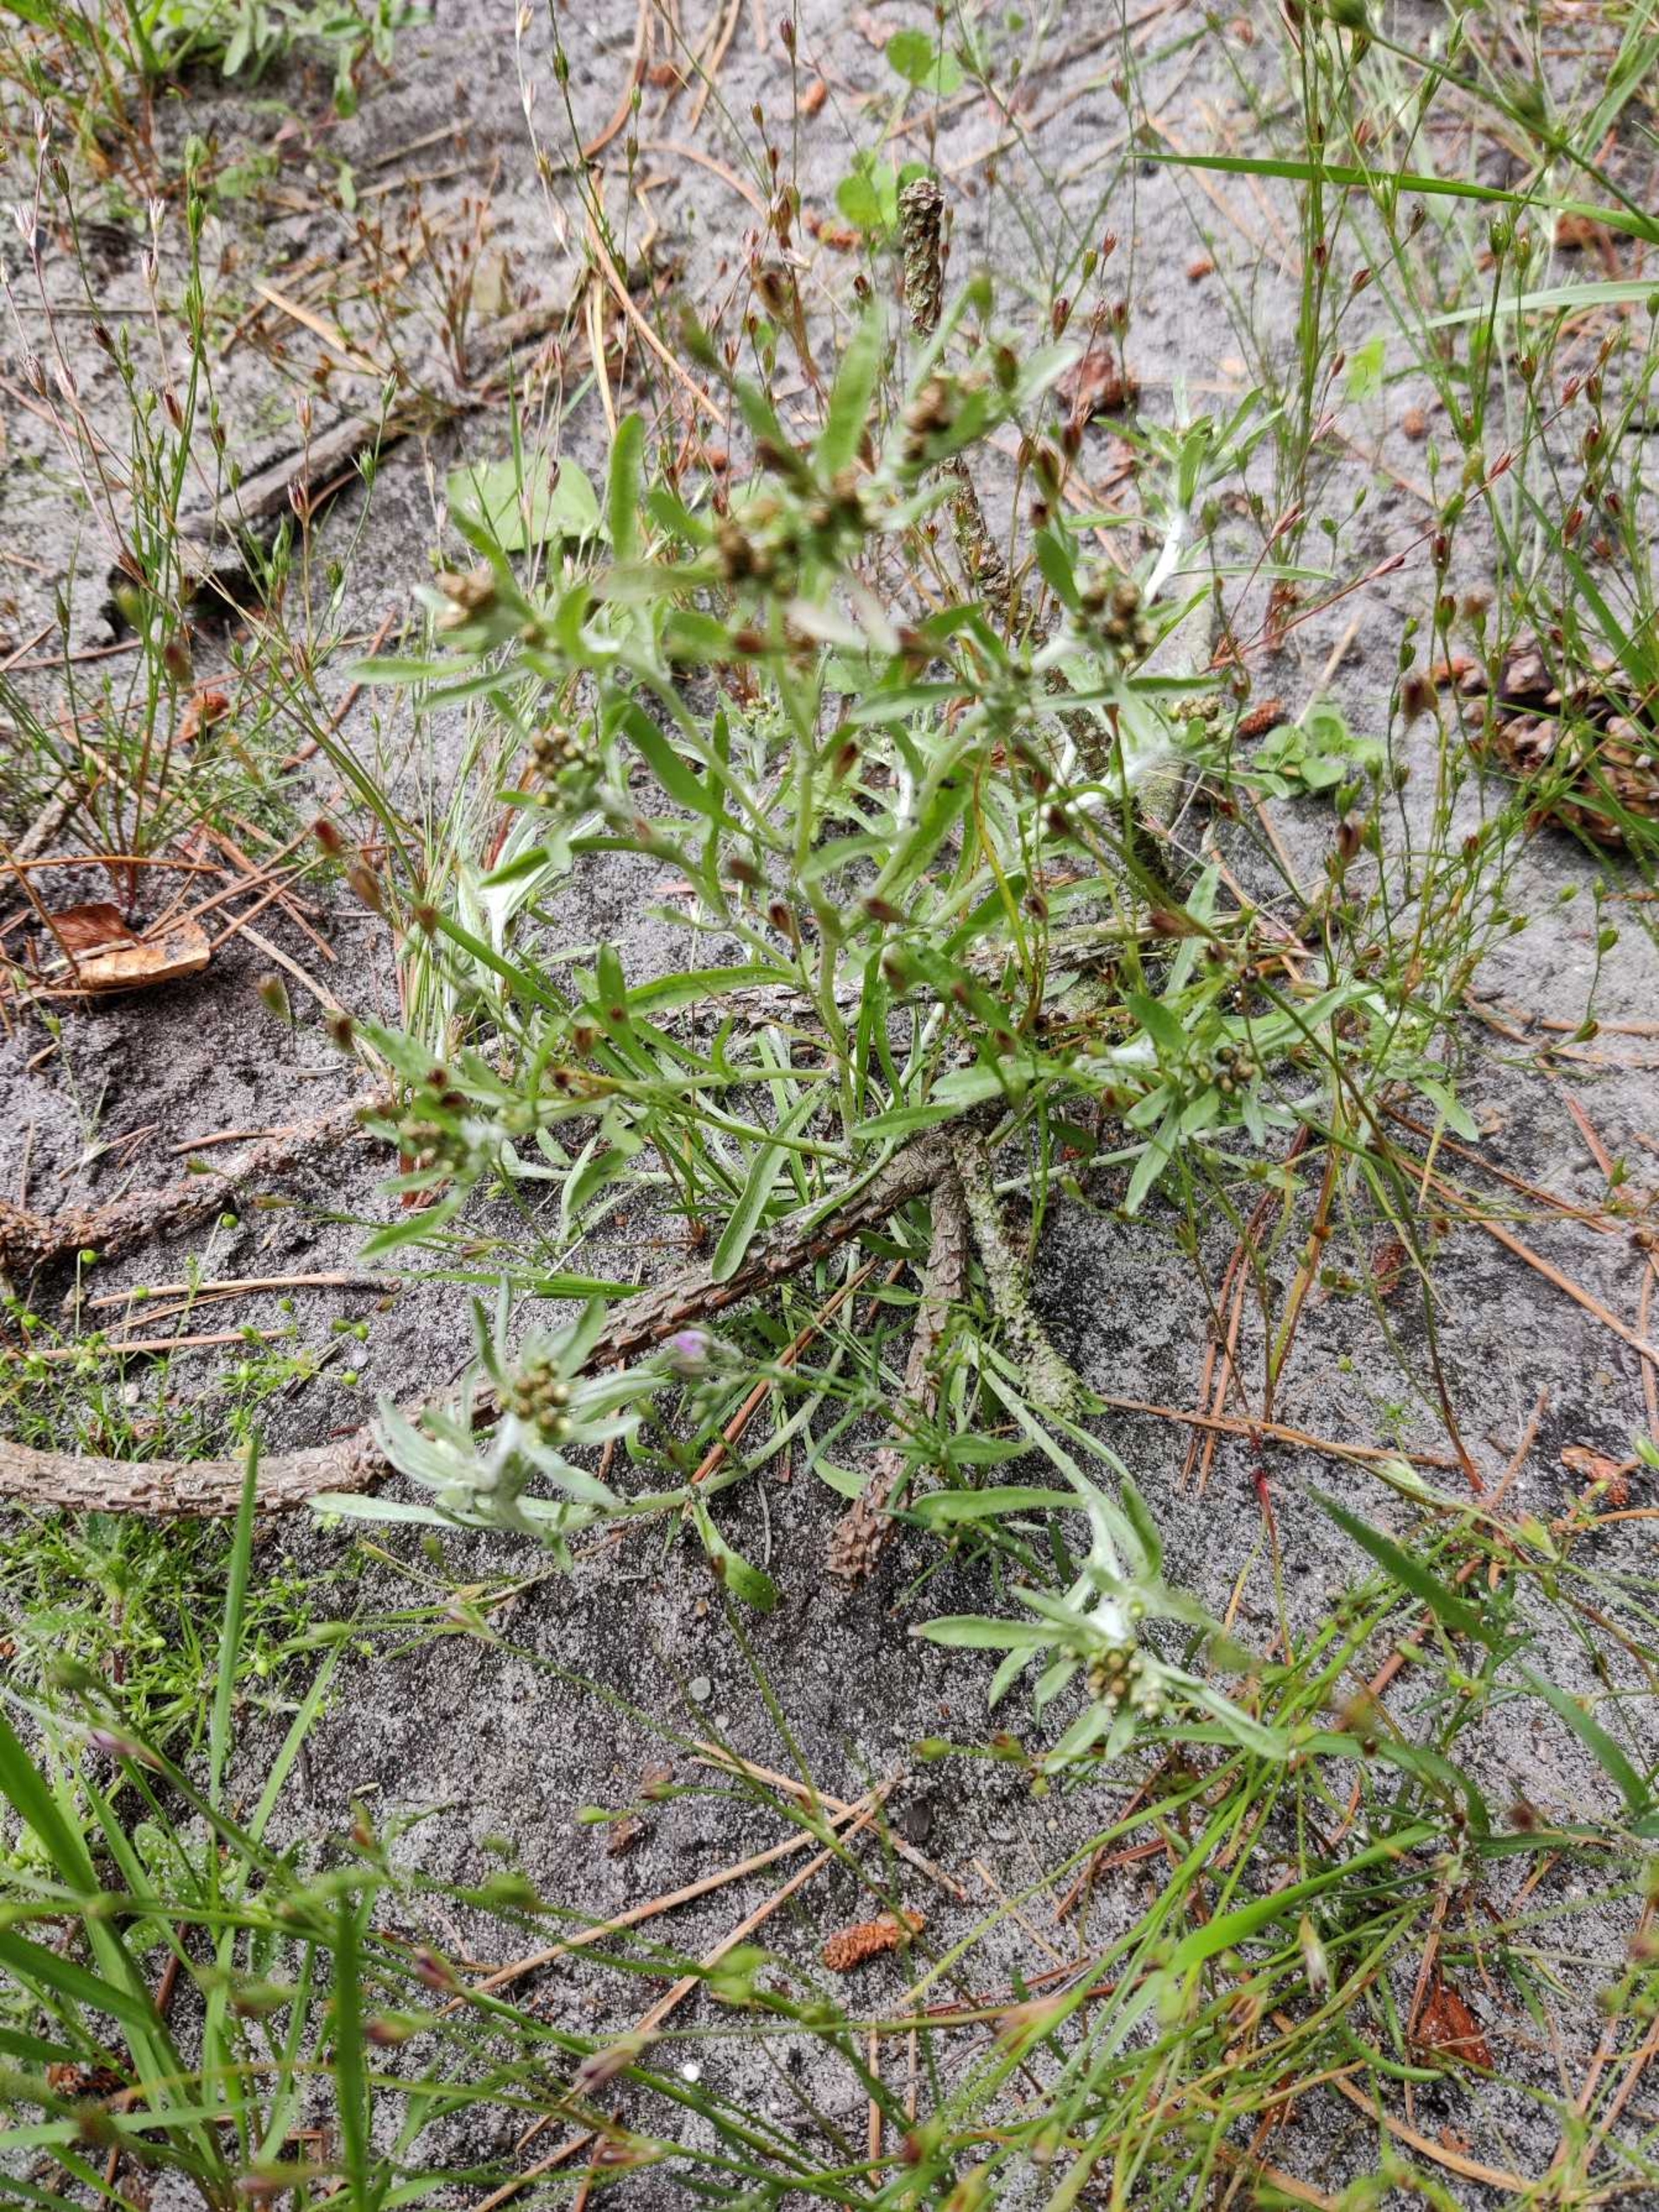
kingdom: Plantae
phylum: Tracheophyta
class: Magnoliopsida
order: Asterales
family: Asteraceae
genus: Gnaphalium
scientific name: Gnaphalium uliginosum
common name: Sump-evighedsblomst
